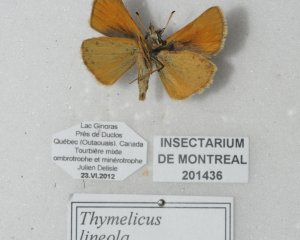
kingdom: Animalia
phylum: Arthropoda
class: Insecta
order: Lepidoptera
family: Hesperiidae
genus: Thymelicus
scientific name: Thymelicus lineola
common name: European Skipper
